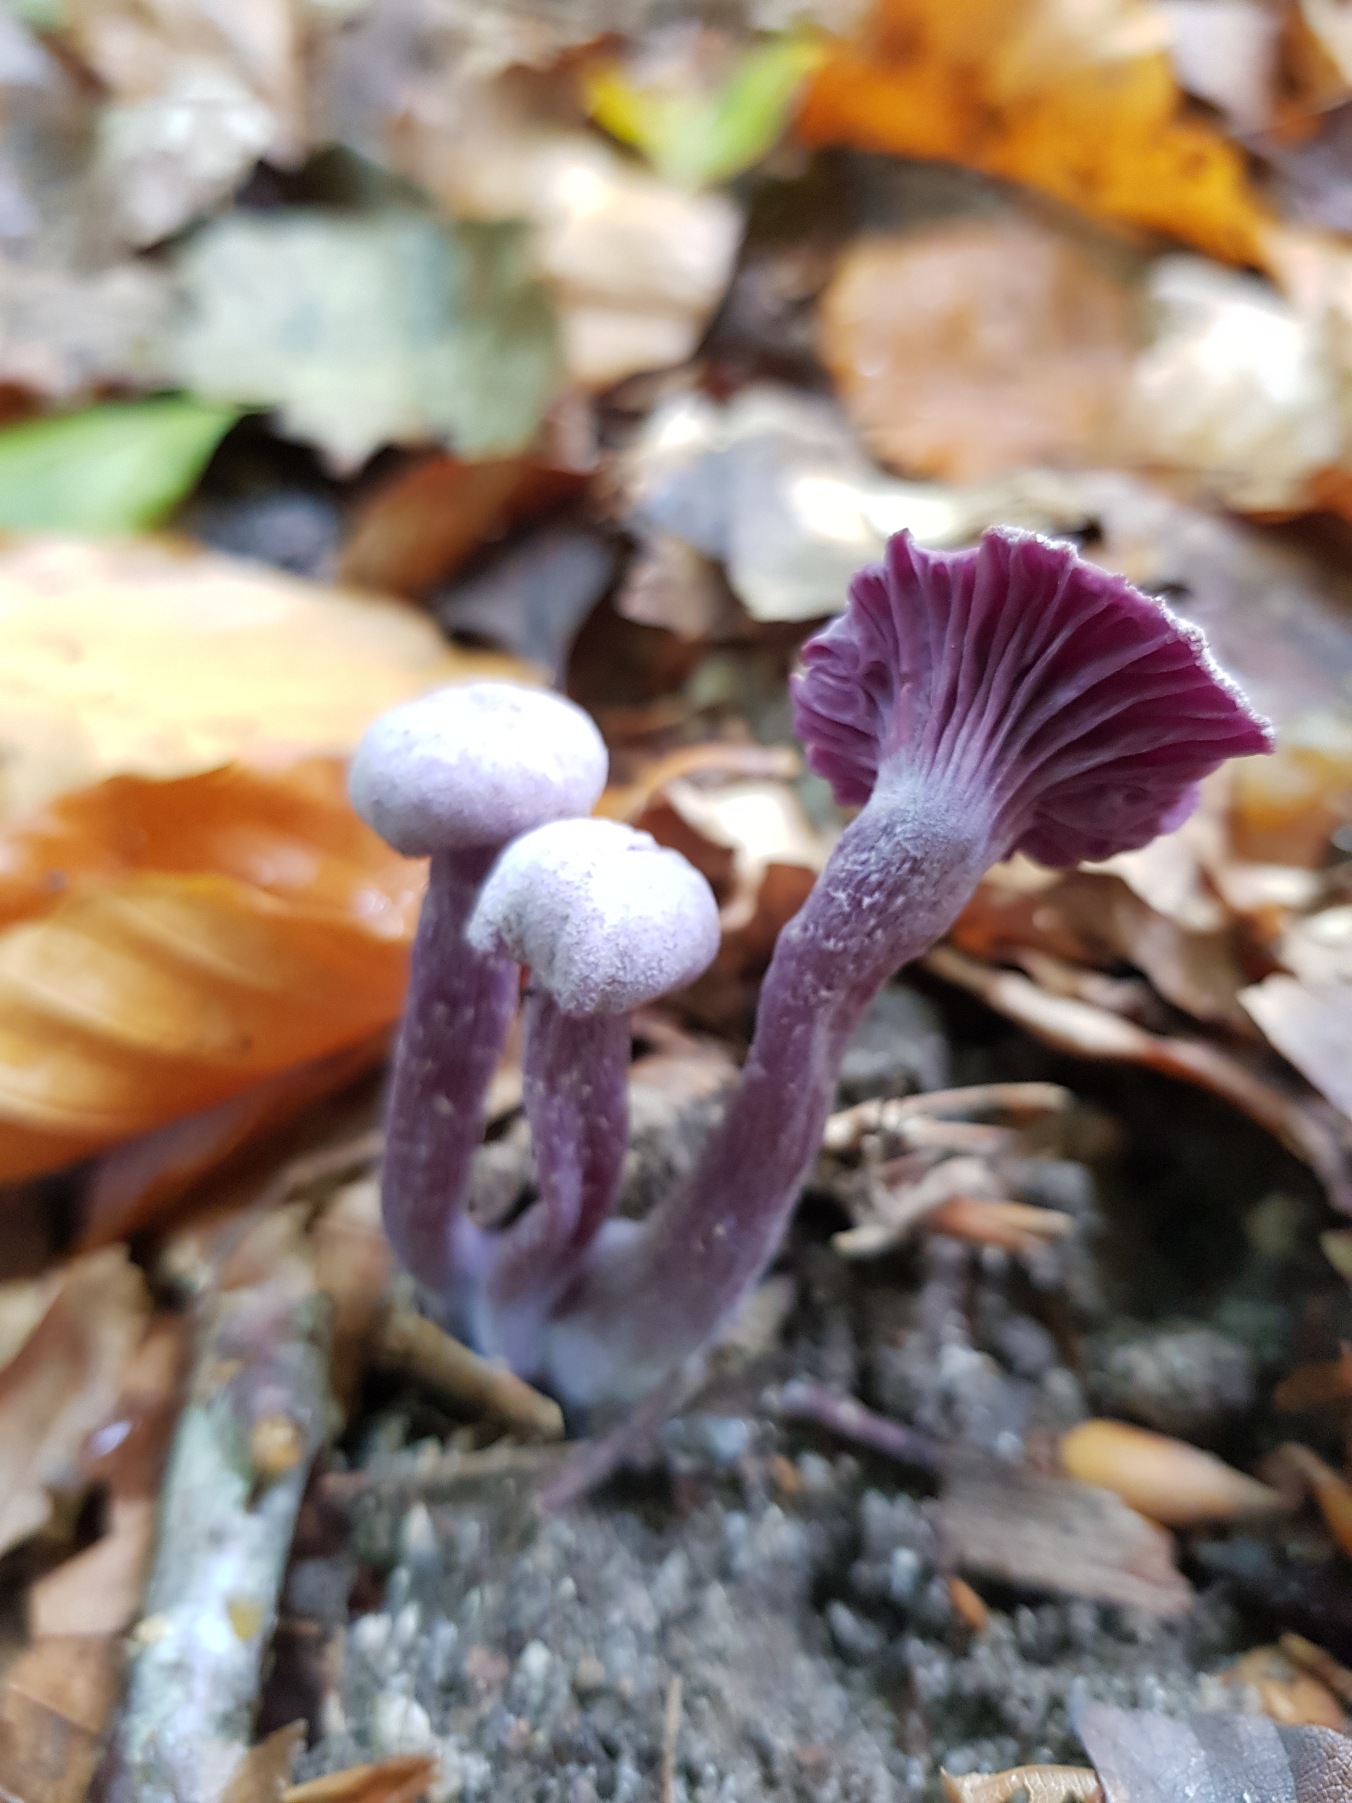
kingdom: Fungi
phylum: Basidiomycota
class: Agaricomycetes
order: Agaricales
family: Hydnangiaceae
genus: Laccaria
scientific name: Laccaria amethystina
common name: Violet ametysthat
